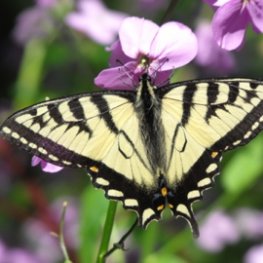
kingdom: Animalia
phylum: Arthropoda
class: Insecta
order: Lepidoptera
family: Papilionidae
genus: Pterourus
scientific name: Pterourus canadensis
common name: Canadian Tiger Swallowtail
